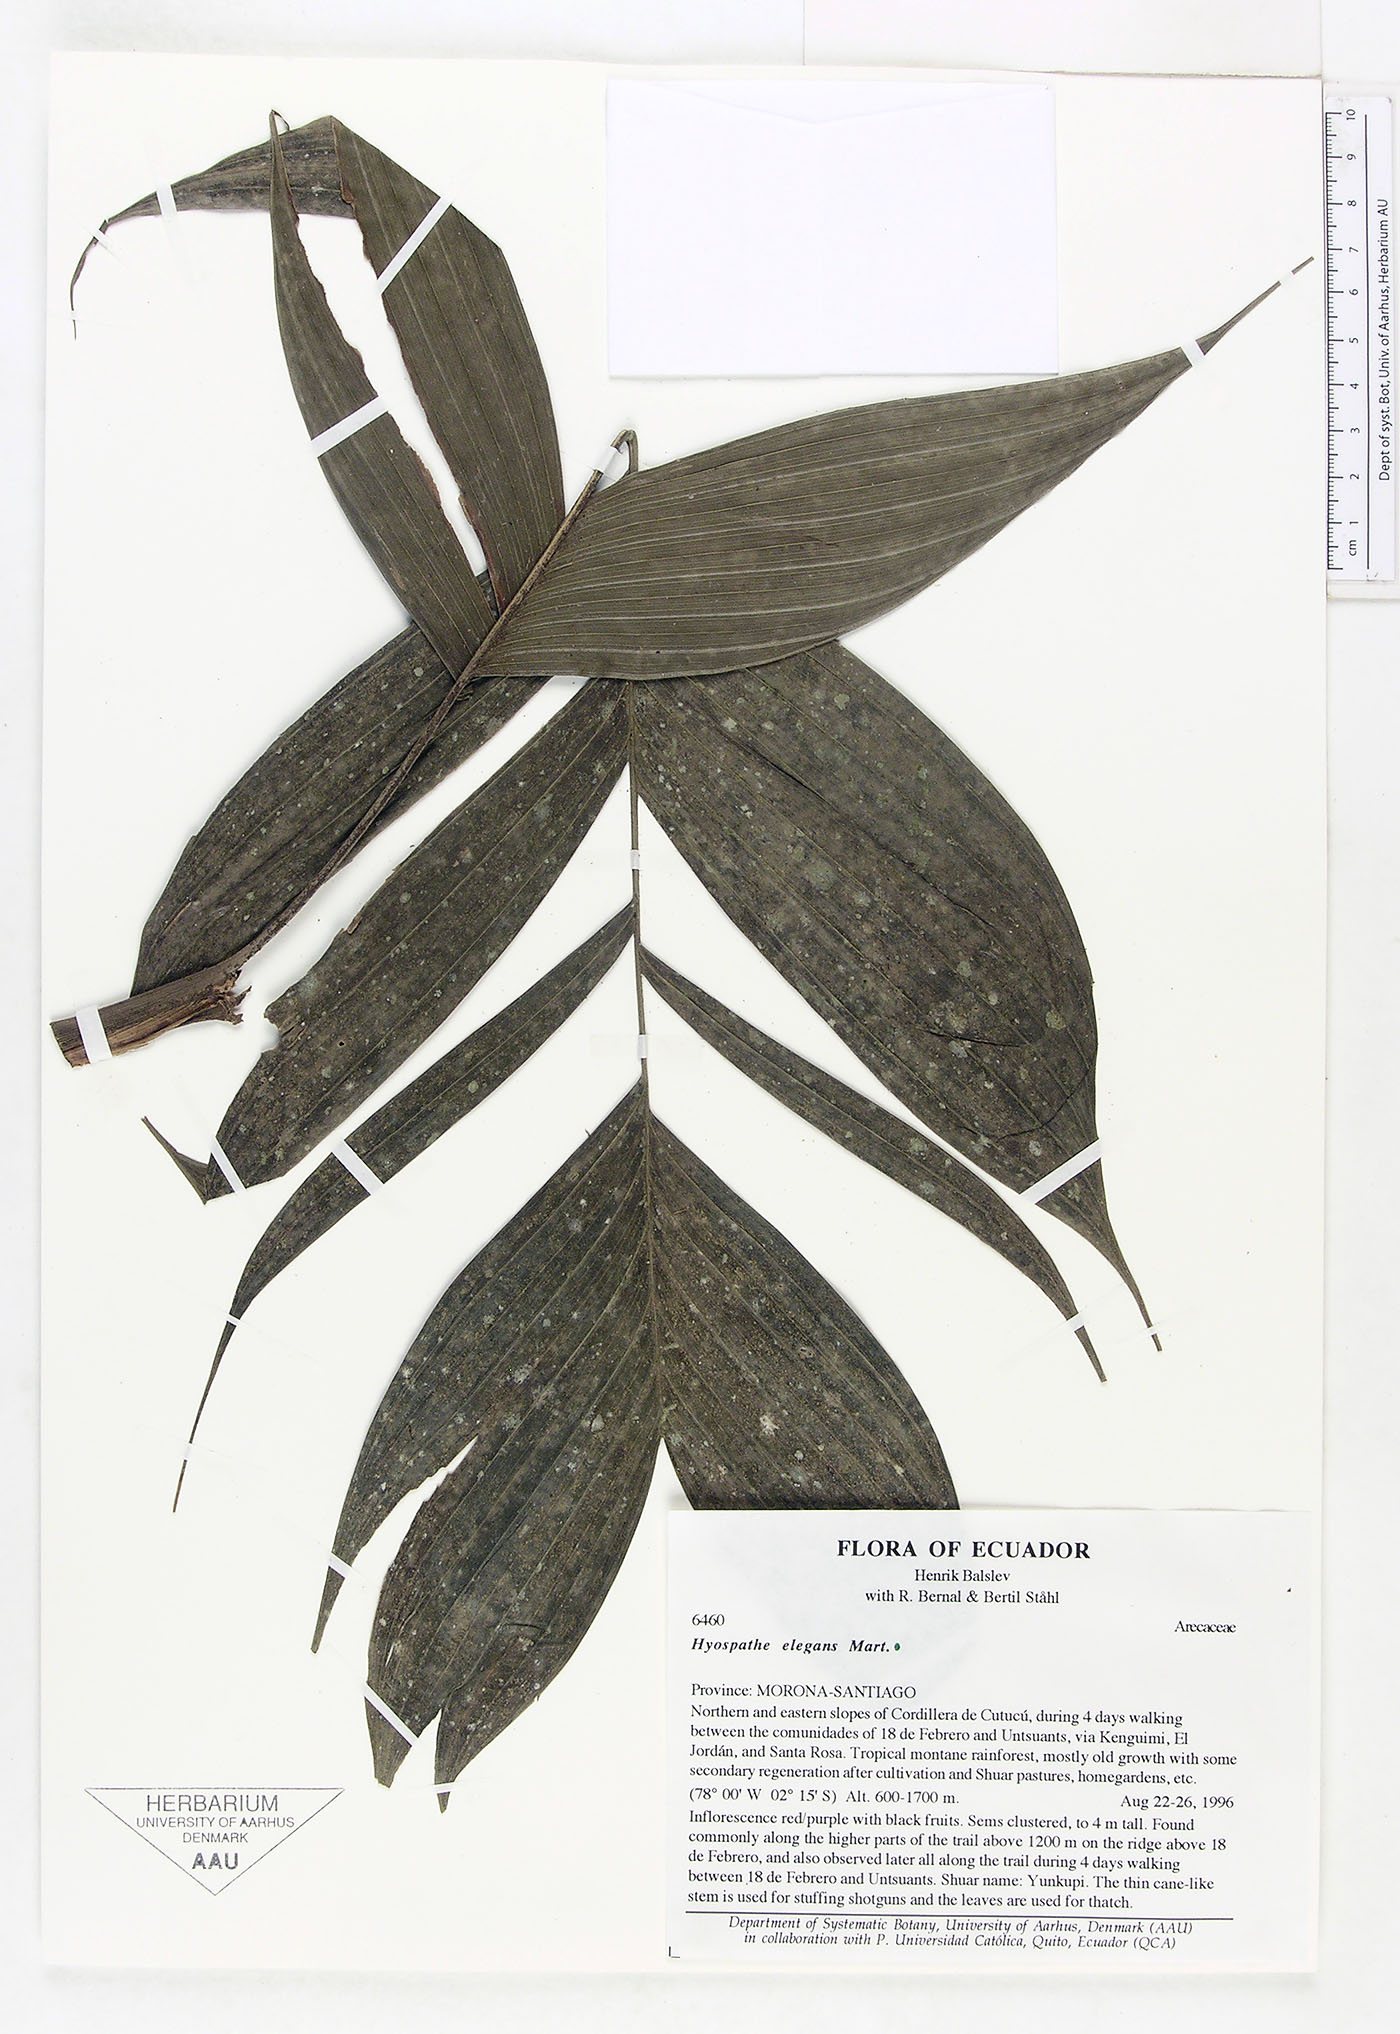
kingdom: Plantae
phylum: Tracheophyta
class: Liliopsida
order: Arecales
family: Arecaceae
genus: Hyospathe
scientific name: Hyospathe elegans
